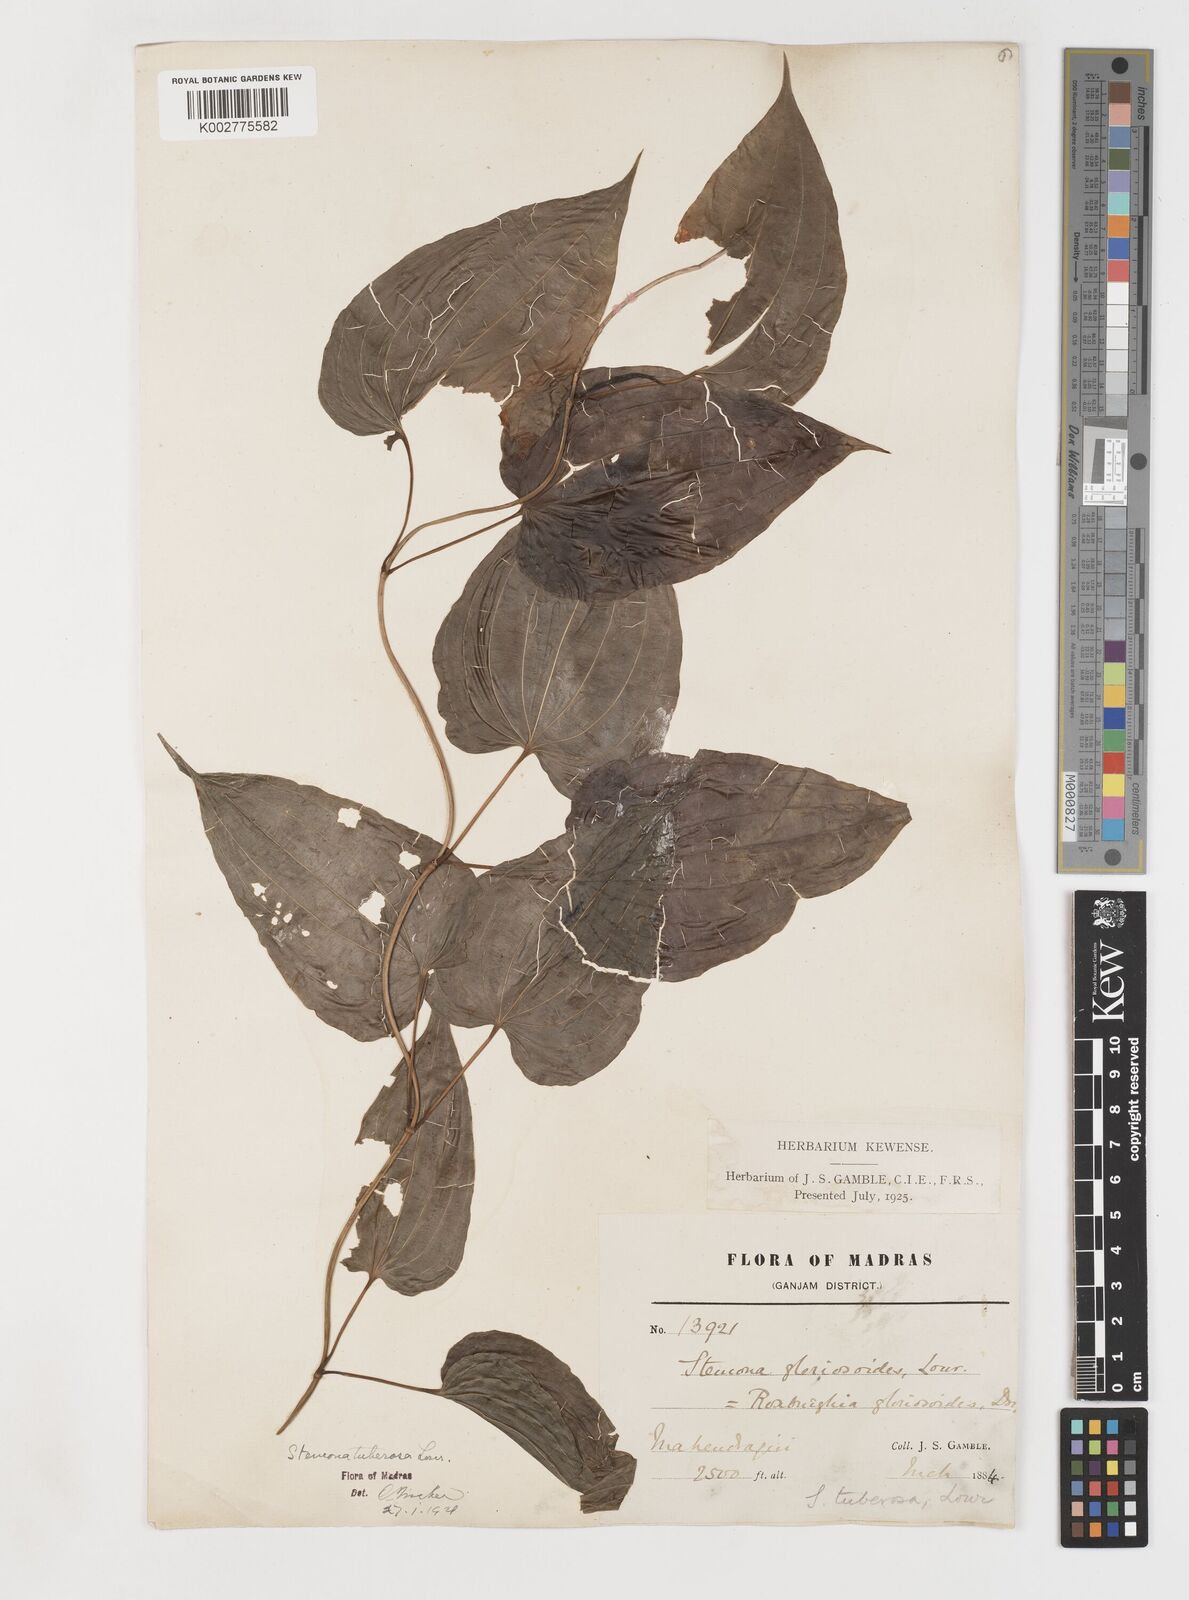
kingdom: Plantae
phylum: Tracheophyta
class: Liliopsida
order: Pandanales
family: Stemonaceae
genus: Stemona
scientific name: Stemona tuberosa
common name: Stemona
